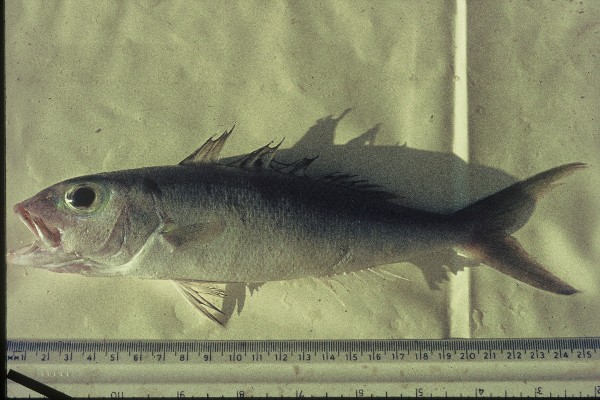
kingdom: Animalia
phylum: Chordata
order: Perciformes
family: Lutjanidae
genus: Aprion
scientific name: Aprion virescens
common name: Green jobfish
